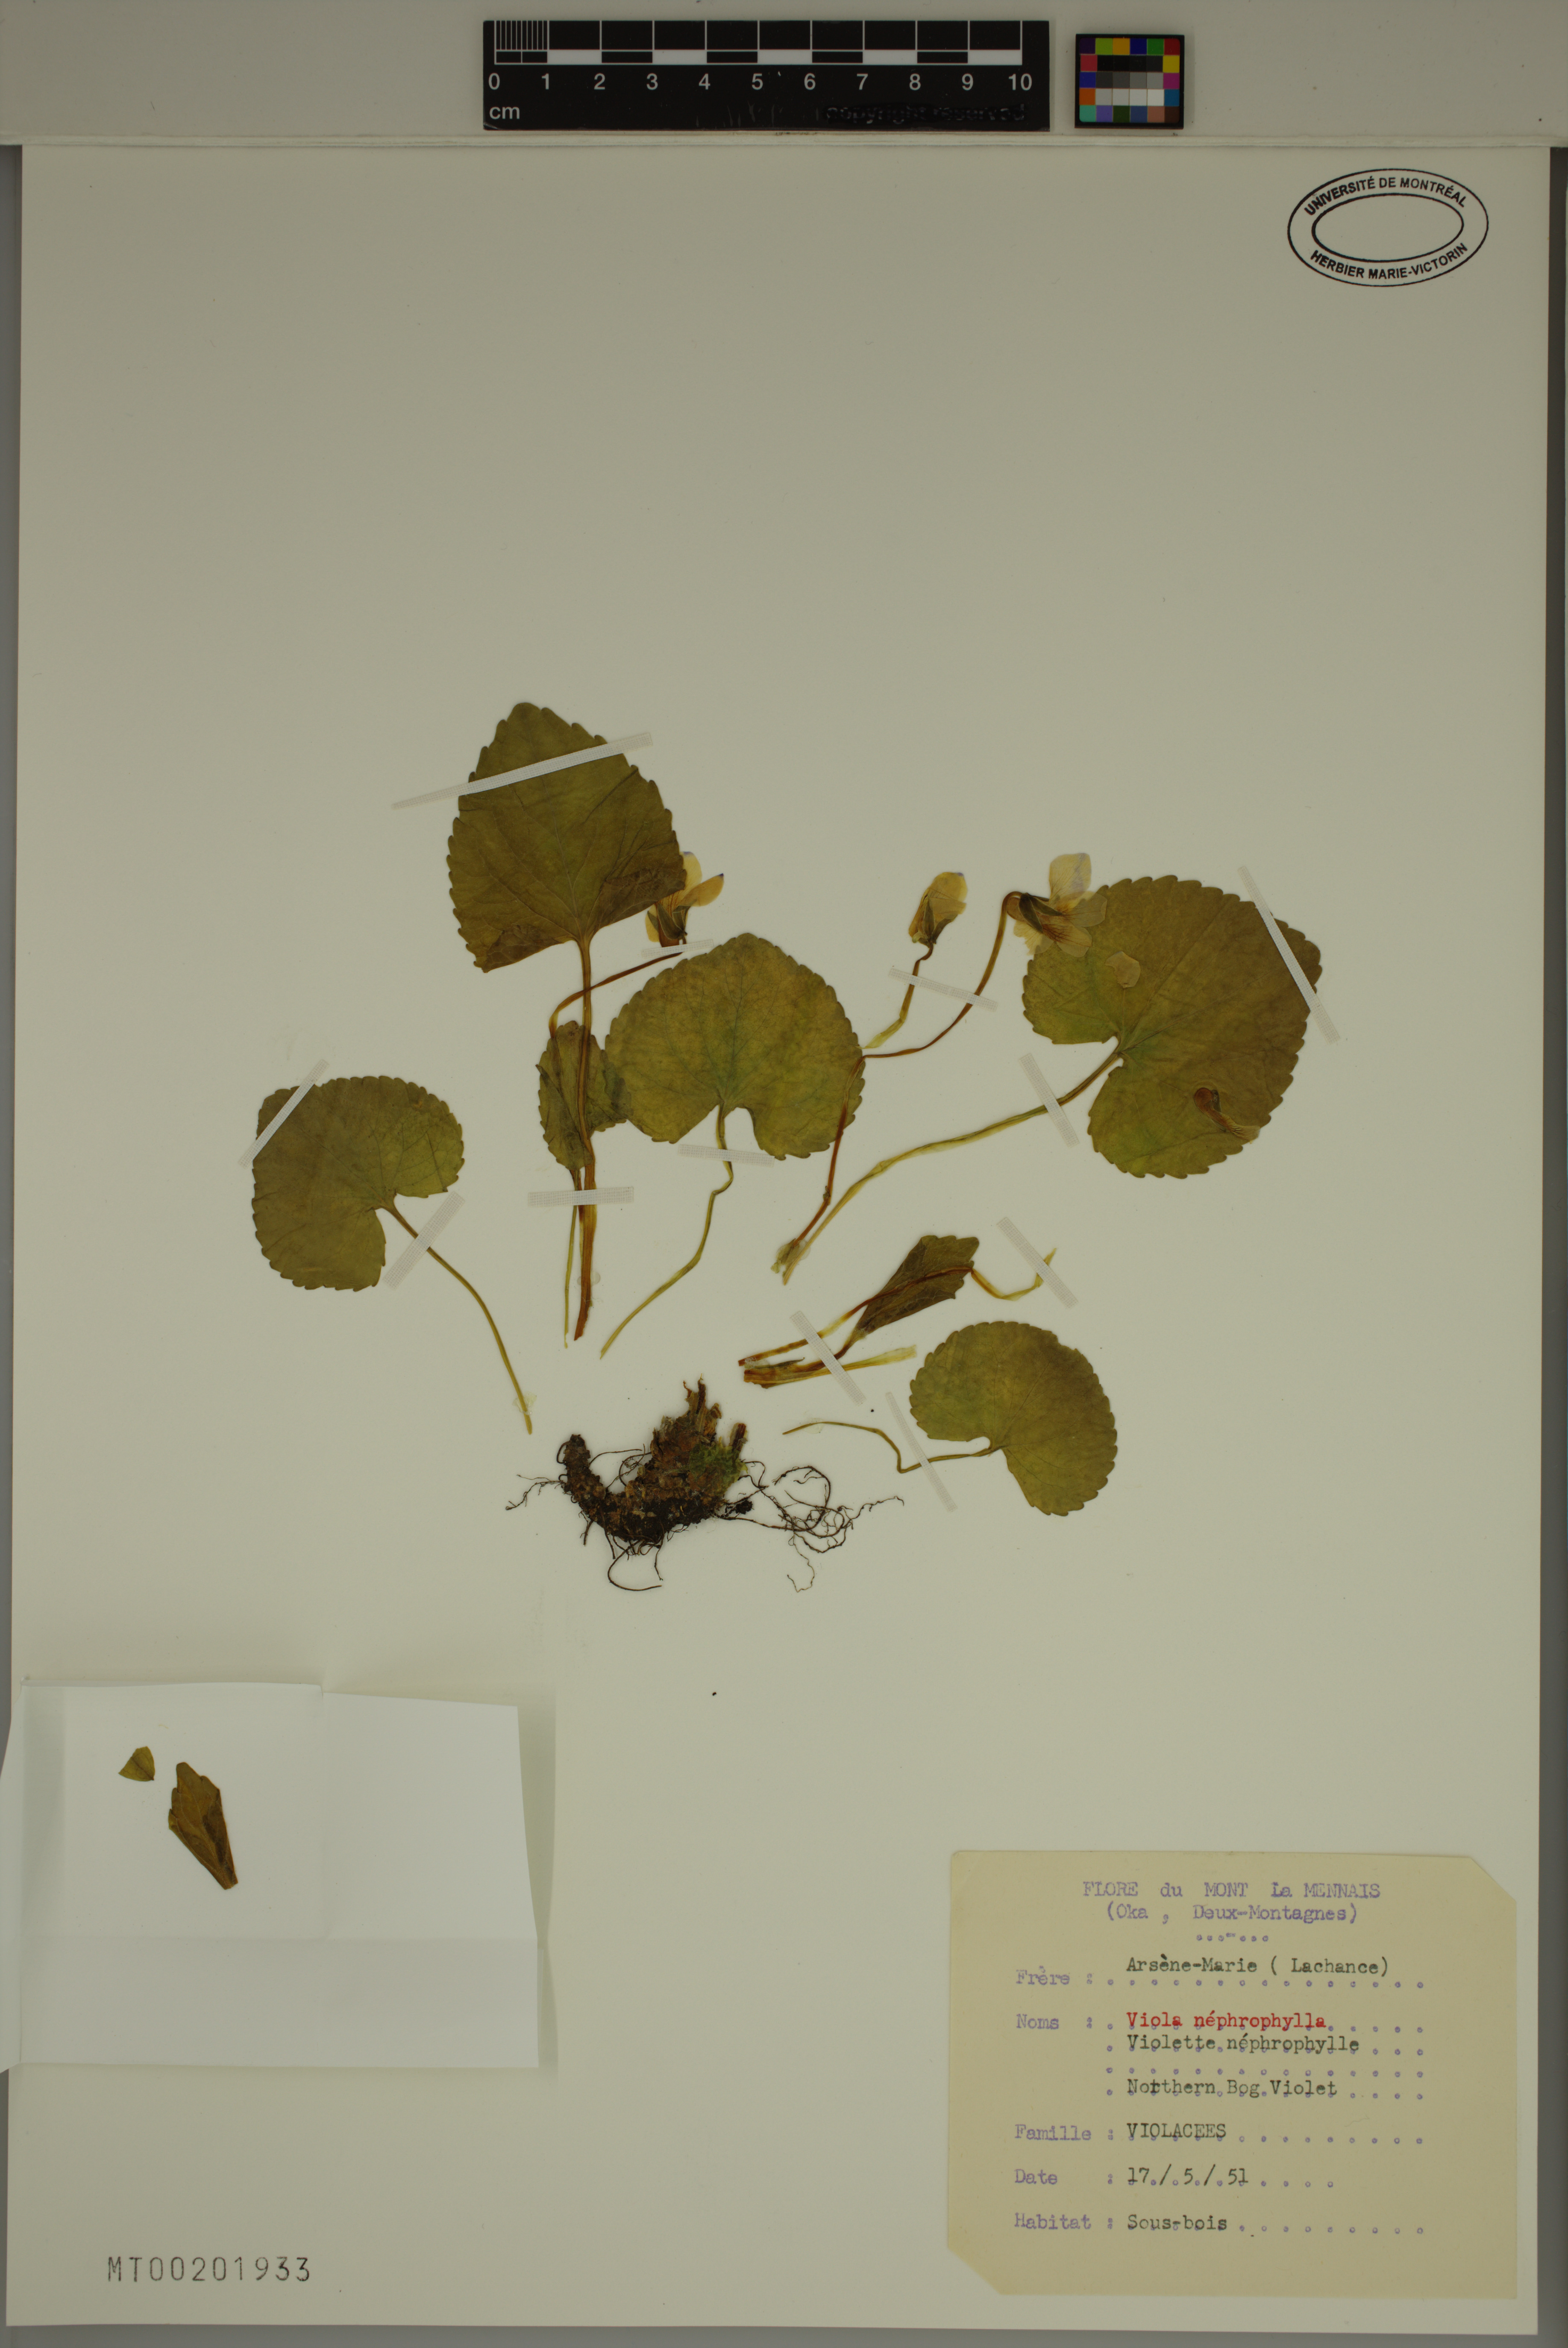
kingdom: Plantae
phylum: Tracheophyta
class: Magnoliopsida
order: Malpighiales
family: Violaceae
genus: Viola
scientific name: Viola nephrophylla
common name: Blue meadow violet
